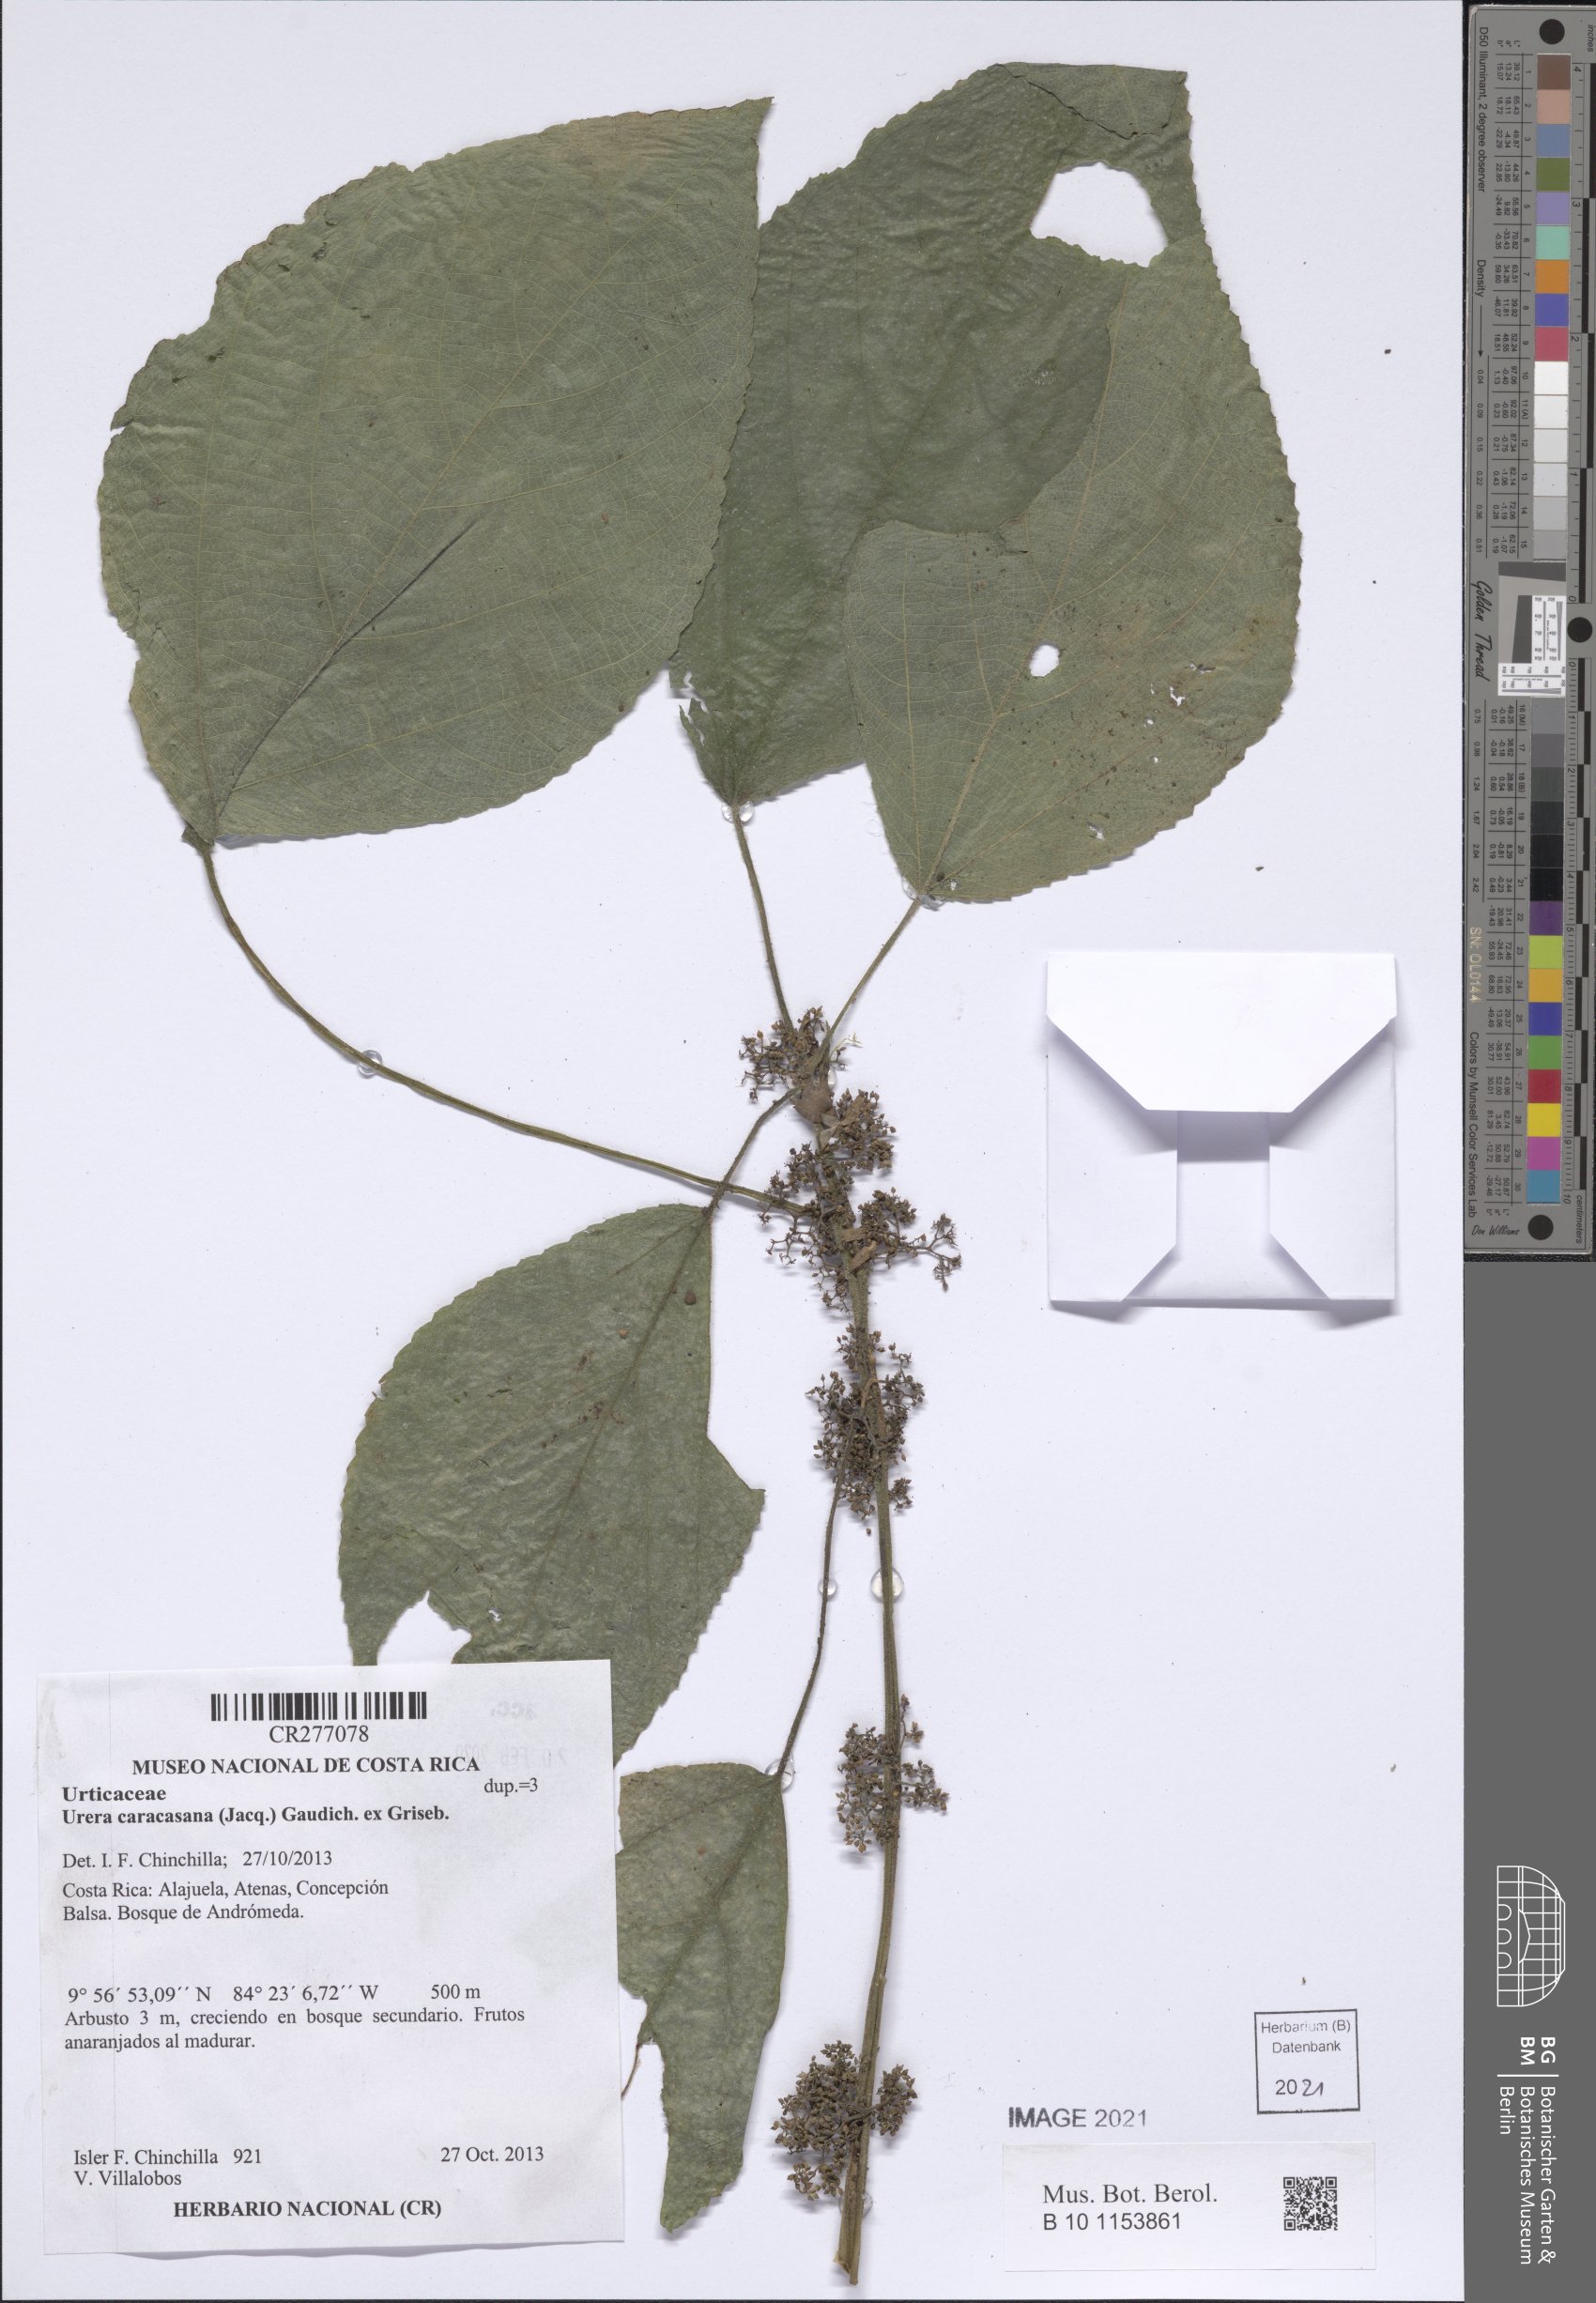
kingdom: Plantae
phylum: Tracheophyta
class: Magnoliopsida
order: Rosales
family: Urticaceae
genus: Urera
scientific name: Urera caracasana
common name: Flameberry
